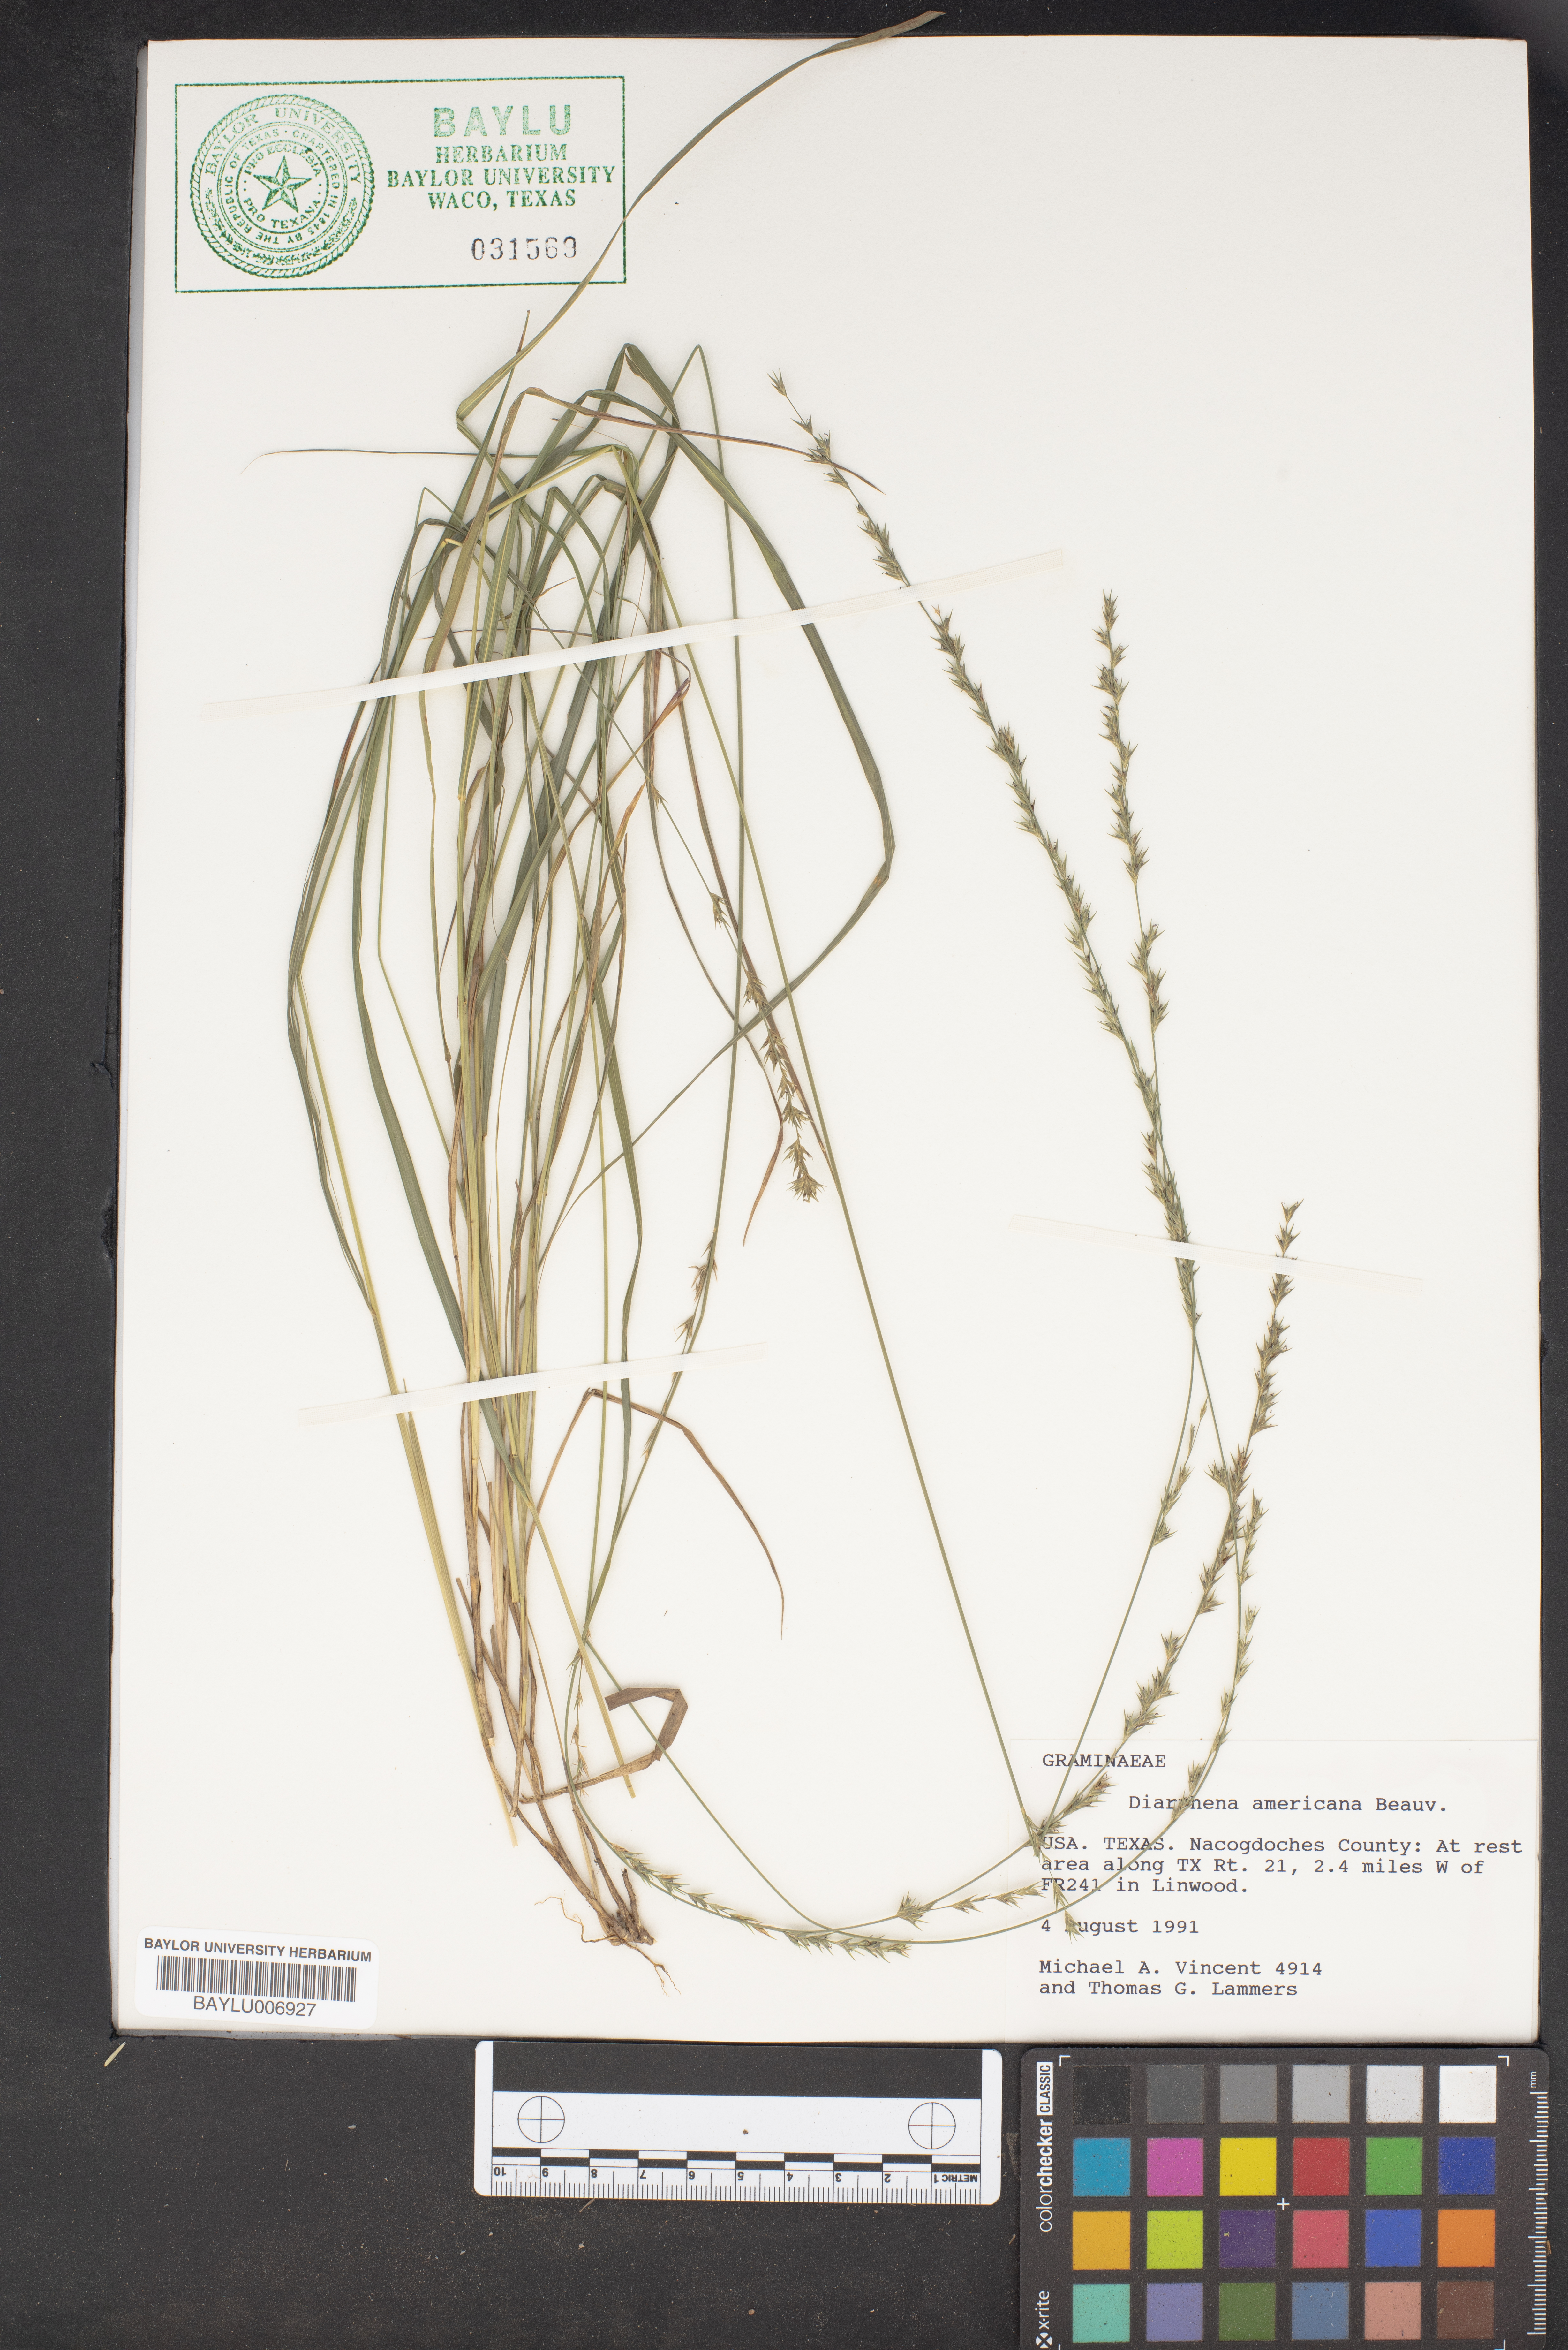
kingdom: Plantae
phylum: Tracheophyta
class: Liliopsida
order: Poales
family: Poaceae
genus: Diarrhena
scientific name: Diarrhena americana
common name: American beakgrain
